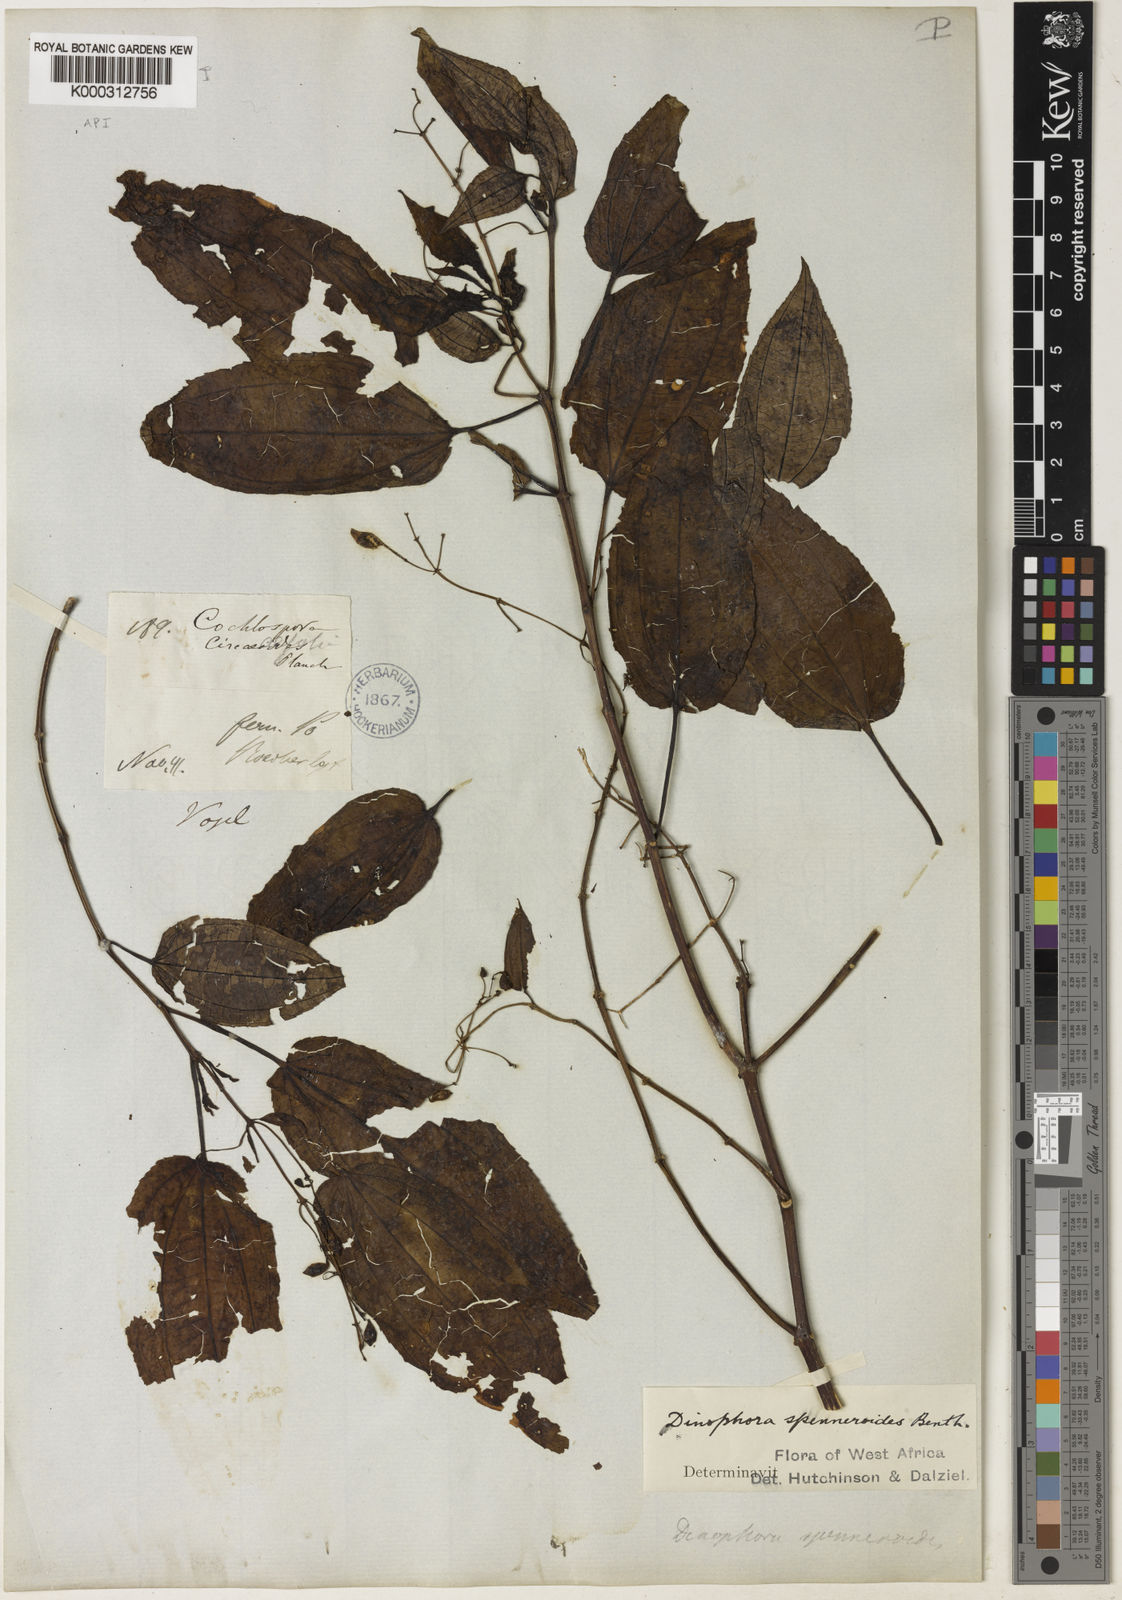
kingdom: Plantae
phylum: Tracheophyta
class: Magnoliopsida
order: Myrtales
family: Melastomataceae
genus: Dinophora
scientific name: Dinophora spenneroides
